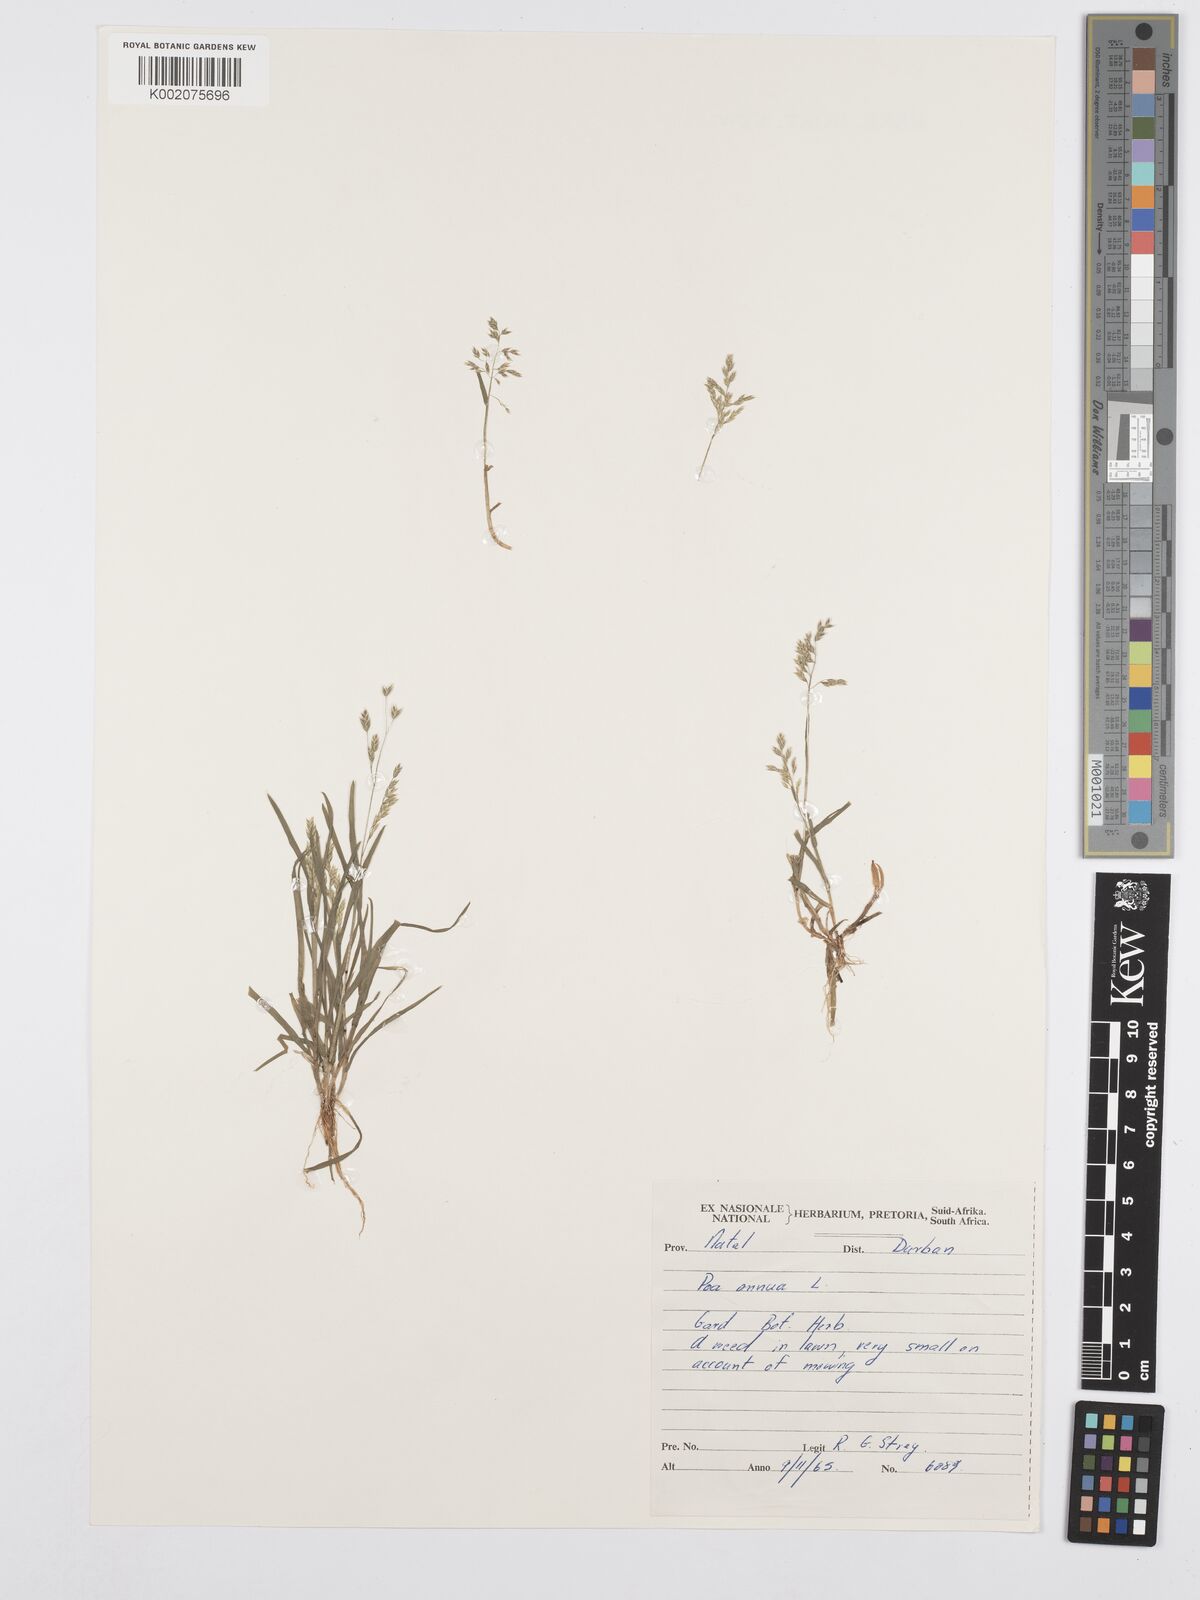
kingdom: Plantae
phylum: Tracheophyta
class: Liliopsida
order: Poales
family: Poaceae
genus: Poa
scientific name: Poa annua
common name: Annual bluegrass
